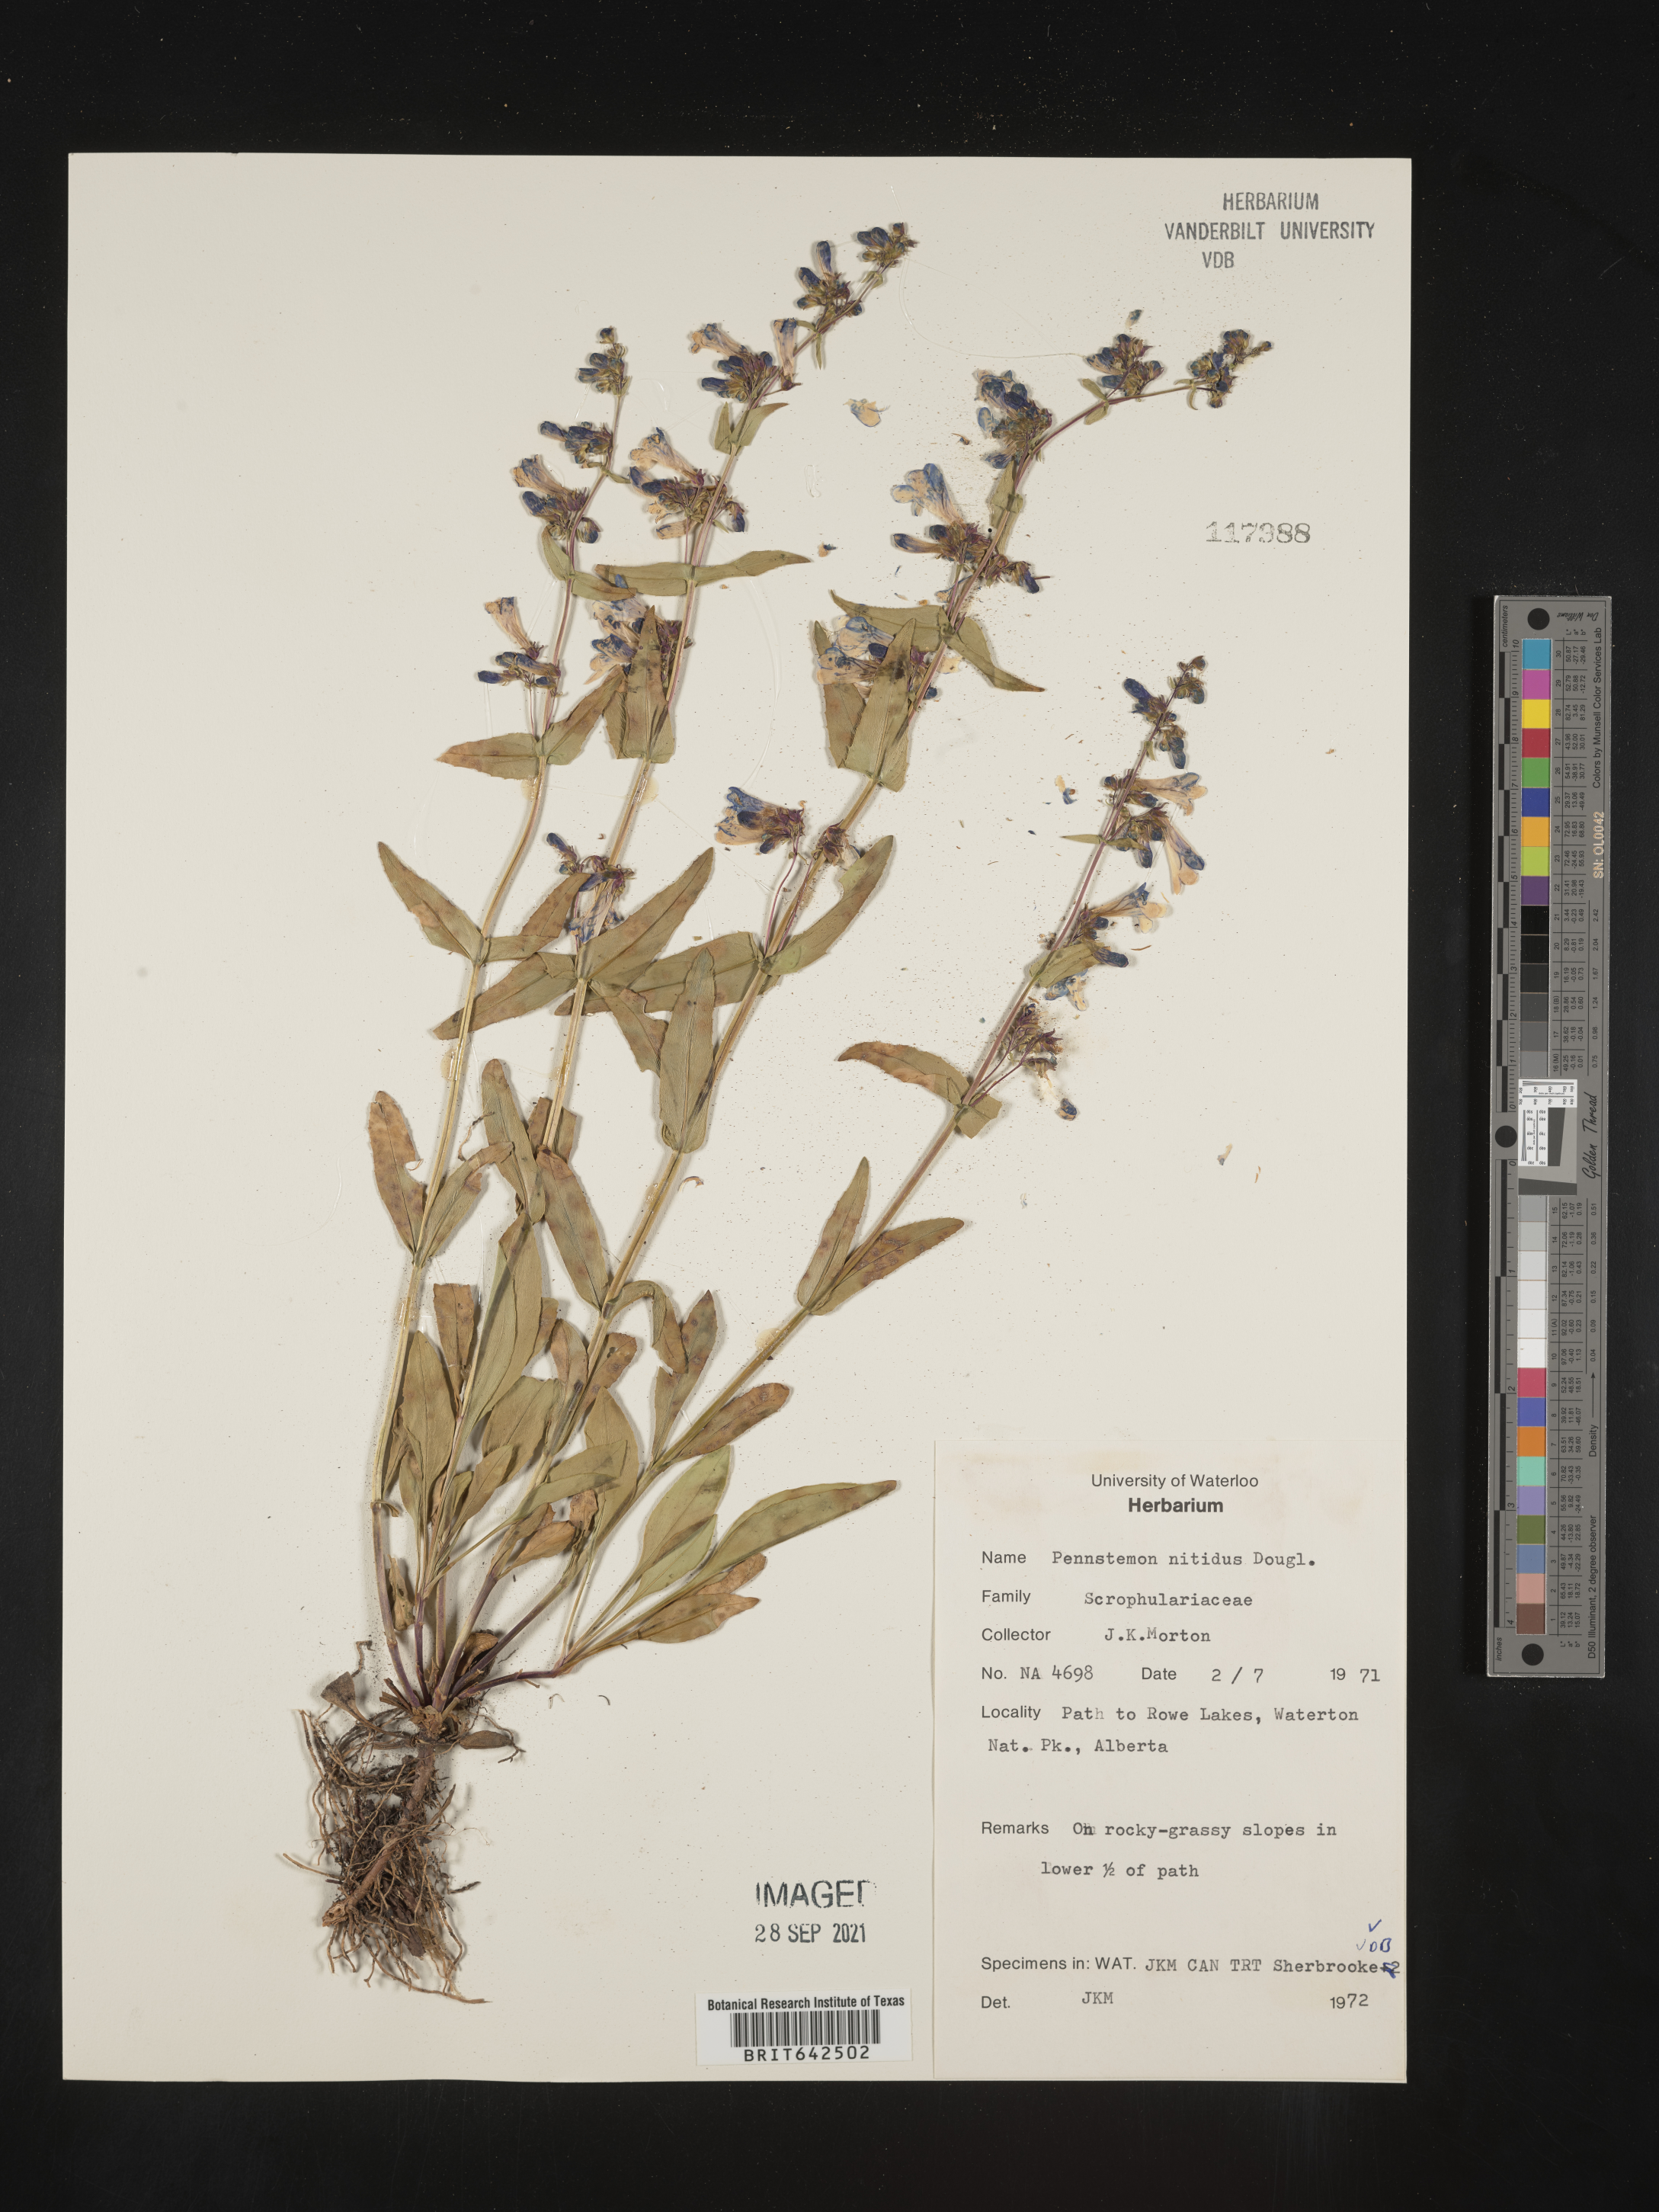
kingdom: Plantae
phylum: Tracheophyta
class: Magnoliopsida
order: Lamiales
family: Plantaginaceae
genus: Penstemon
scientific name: Penstemon
